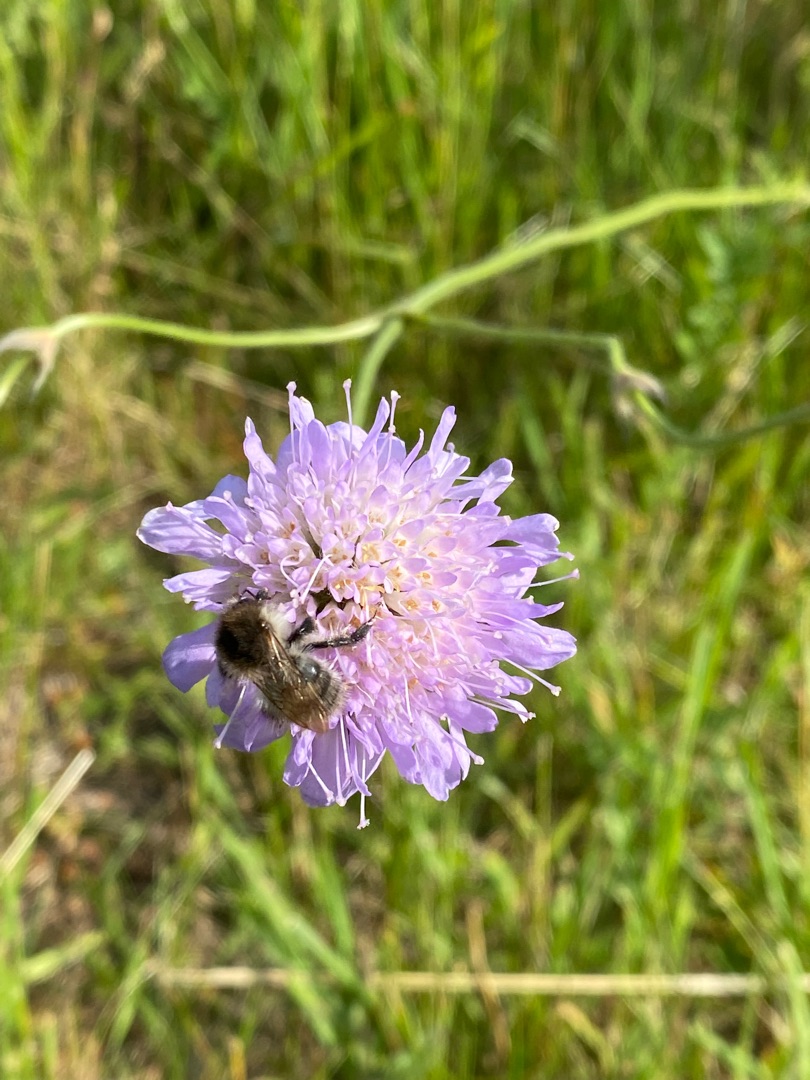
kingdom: Plantae
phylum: Tracheophyta
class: Magnoliopsida
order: Dipsacales
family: Caprifoliaceae
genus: Knautia
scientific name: Knautia arvensis
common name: Blåhat
